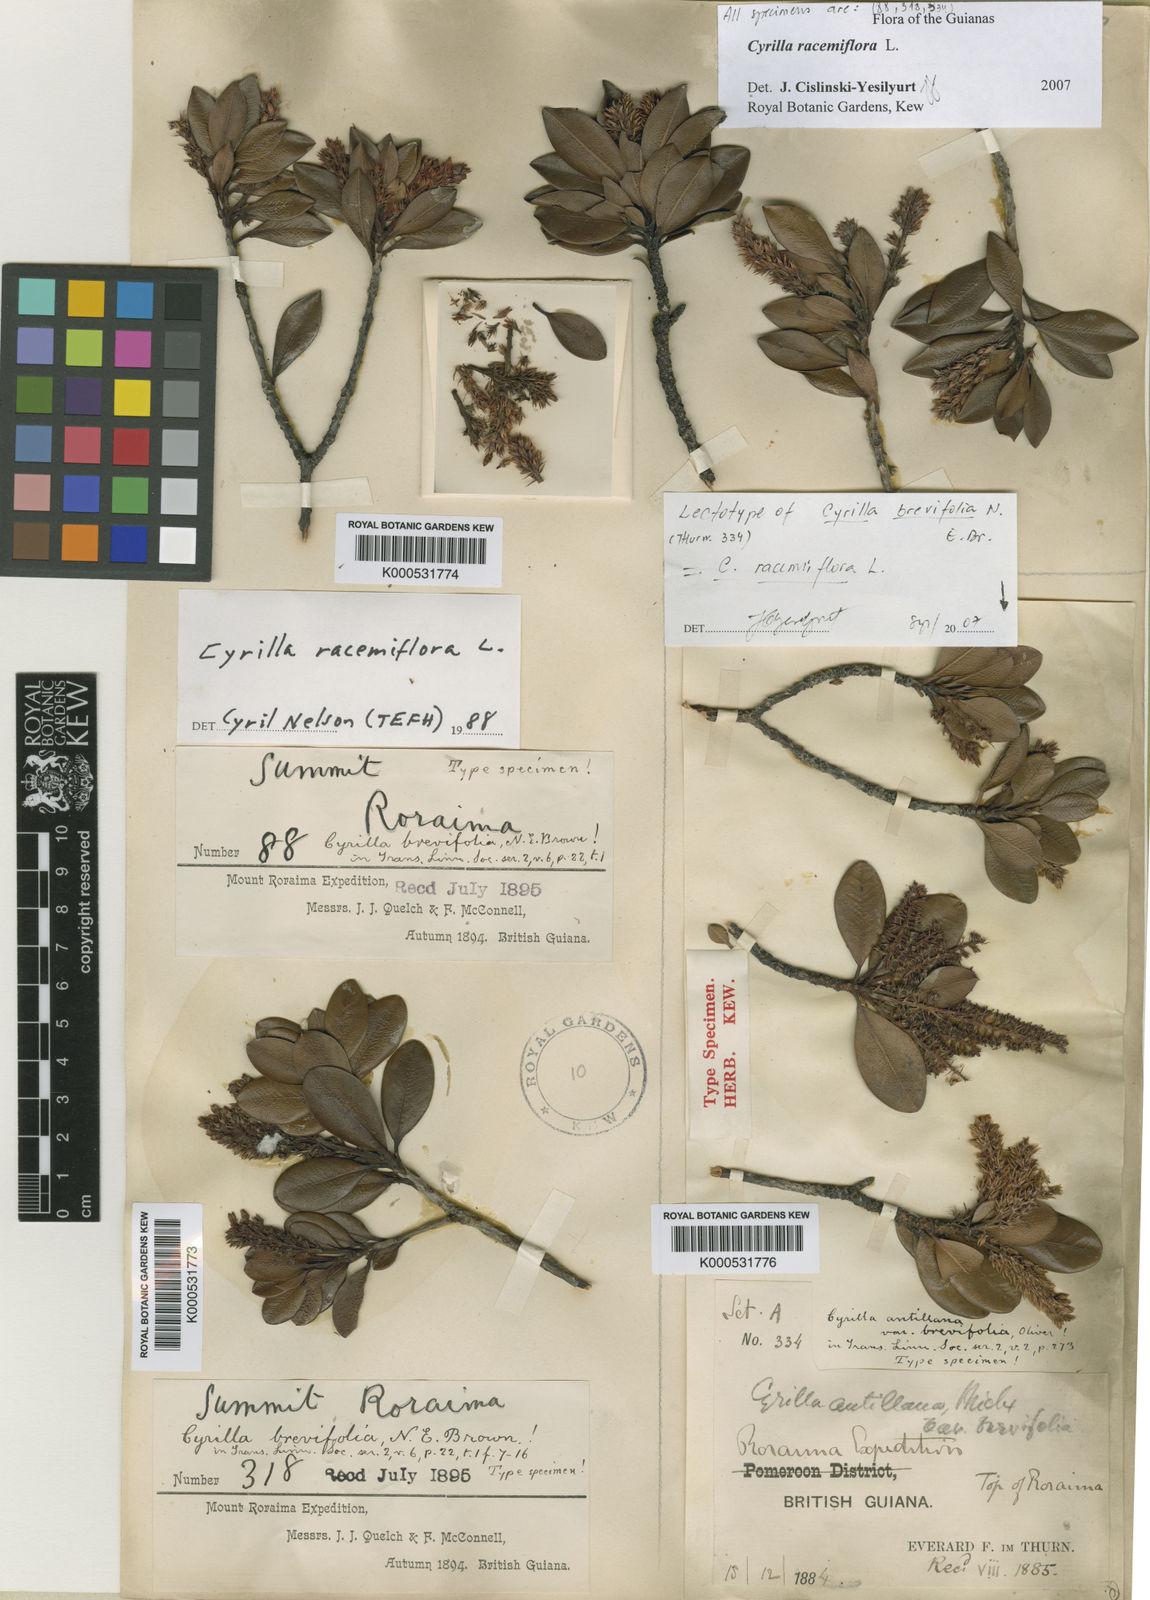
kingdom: Plantae
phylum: Tracheophyta
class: Magnoliopsida
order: Ericales
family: Cyrillaceae
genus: Cyrilla
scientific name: Cyrilla racemiflora
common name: Black titi
